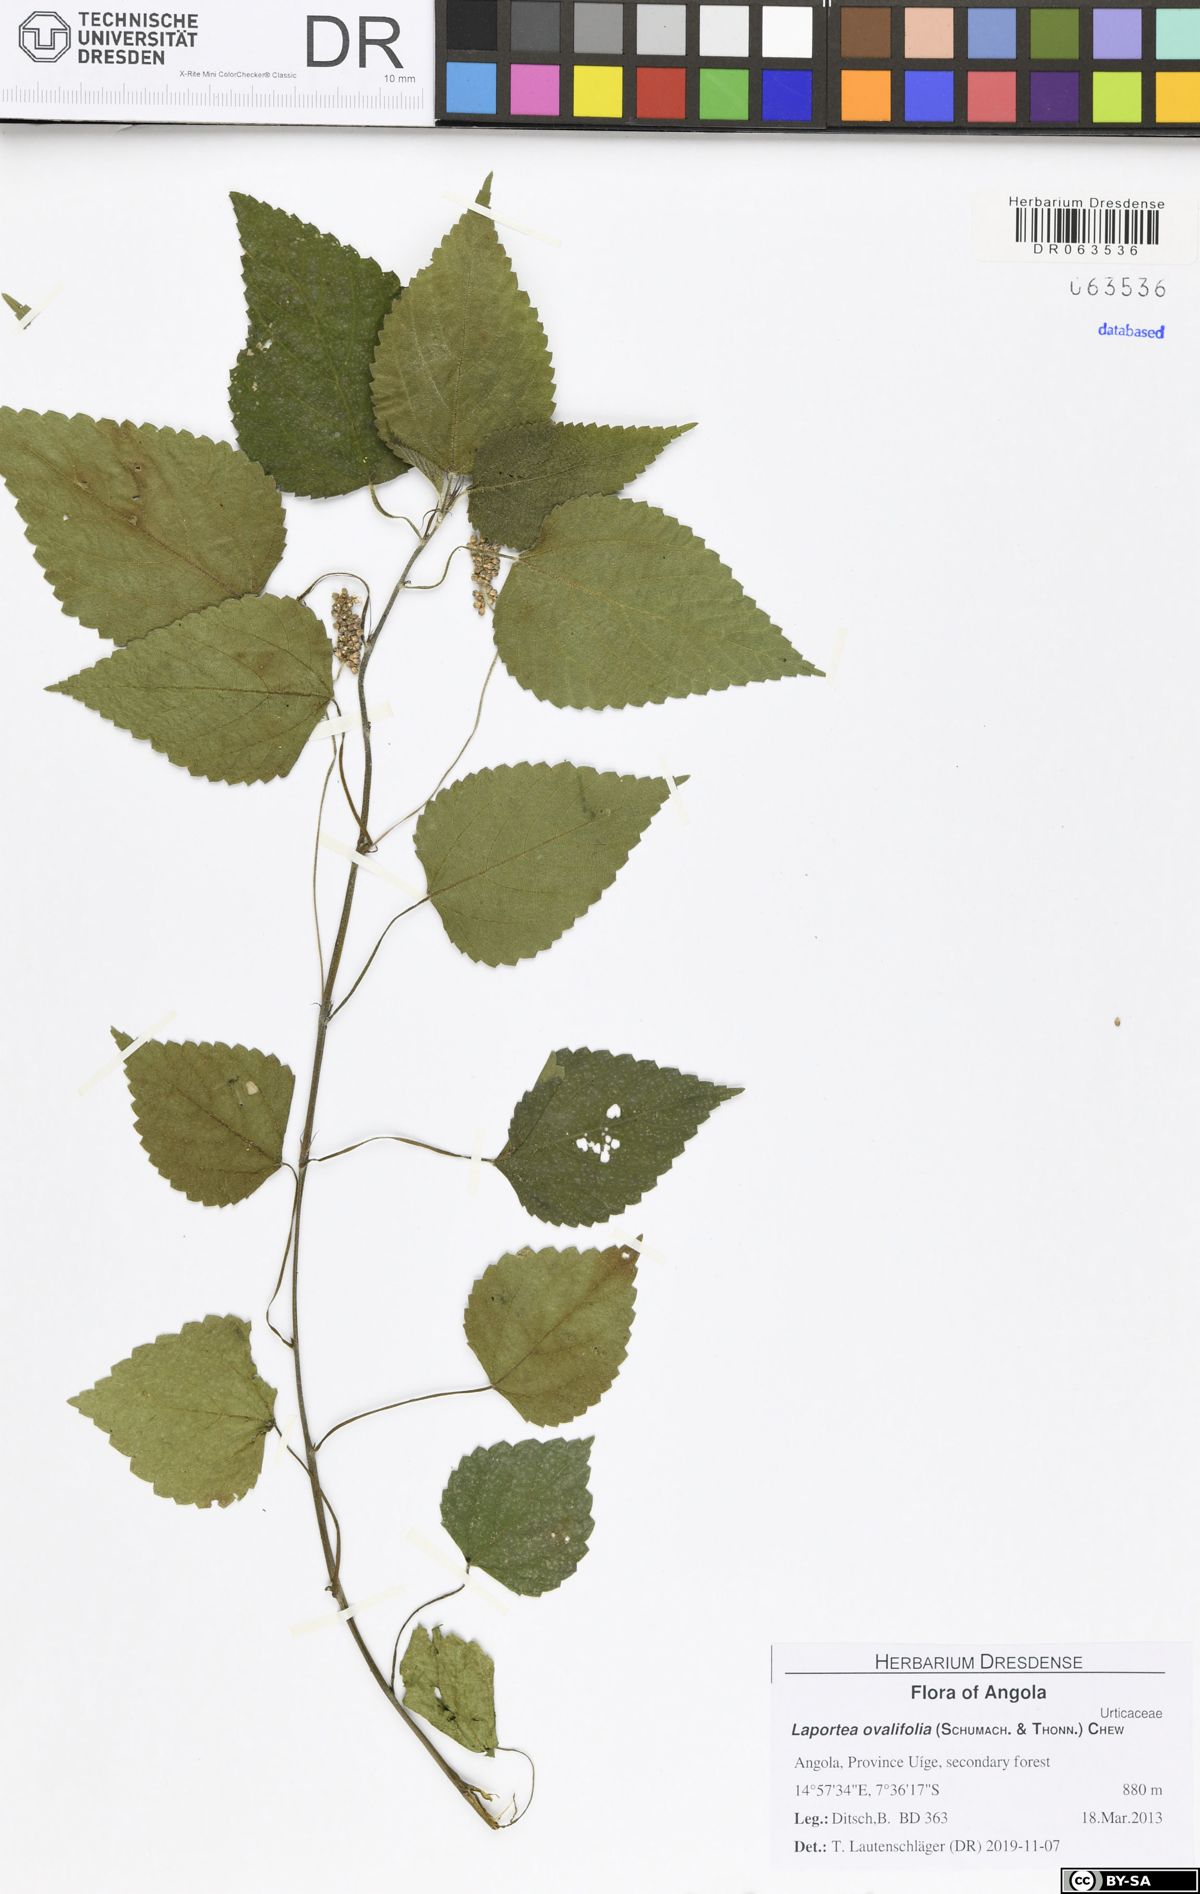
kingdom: Plantae
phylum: Tracheophyta
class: Magnoliopsida
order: Rosales
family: Urticaceae
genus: Laportea
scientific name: Laportea ovalifolia
